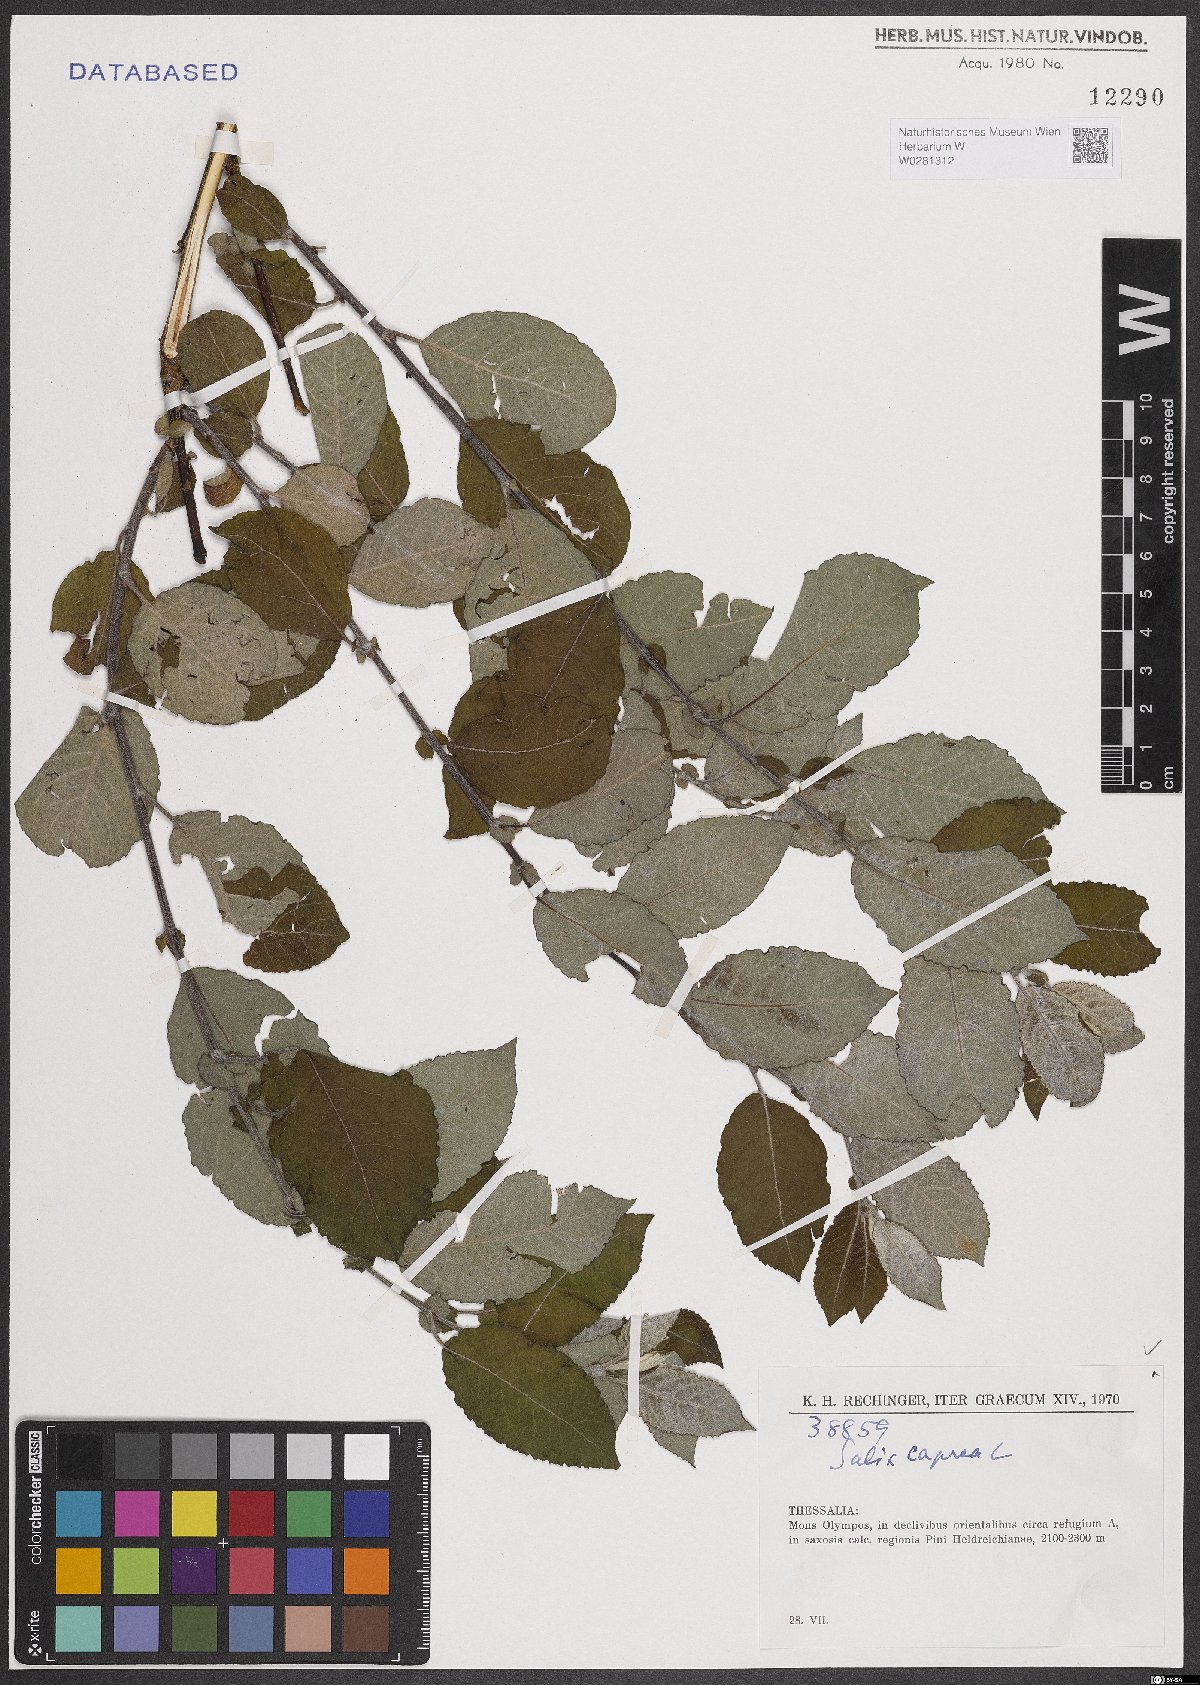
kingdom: Plantae
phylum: Tracheophyta
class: Magnoliopsida
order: Malpighiales
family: Salicaceae
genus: Salix
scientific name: Salix caprea
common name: Goat willow
